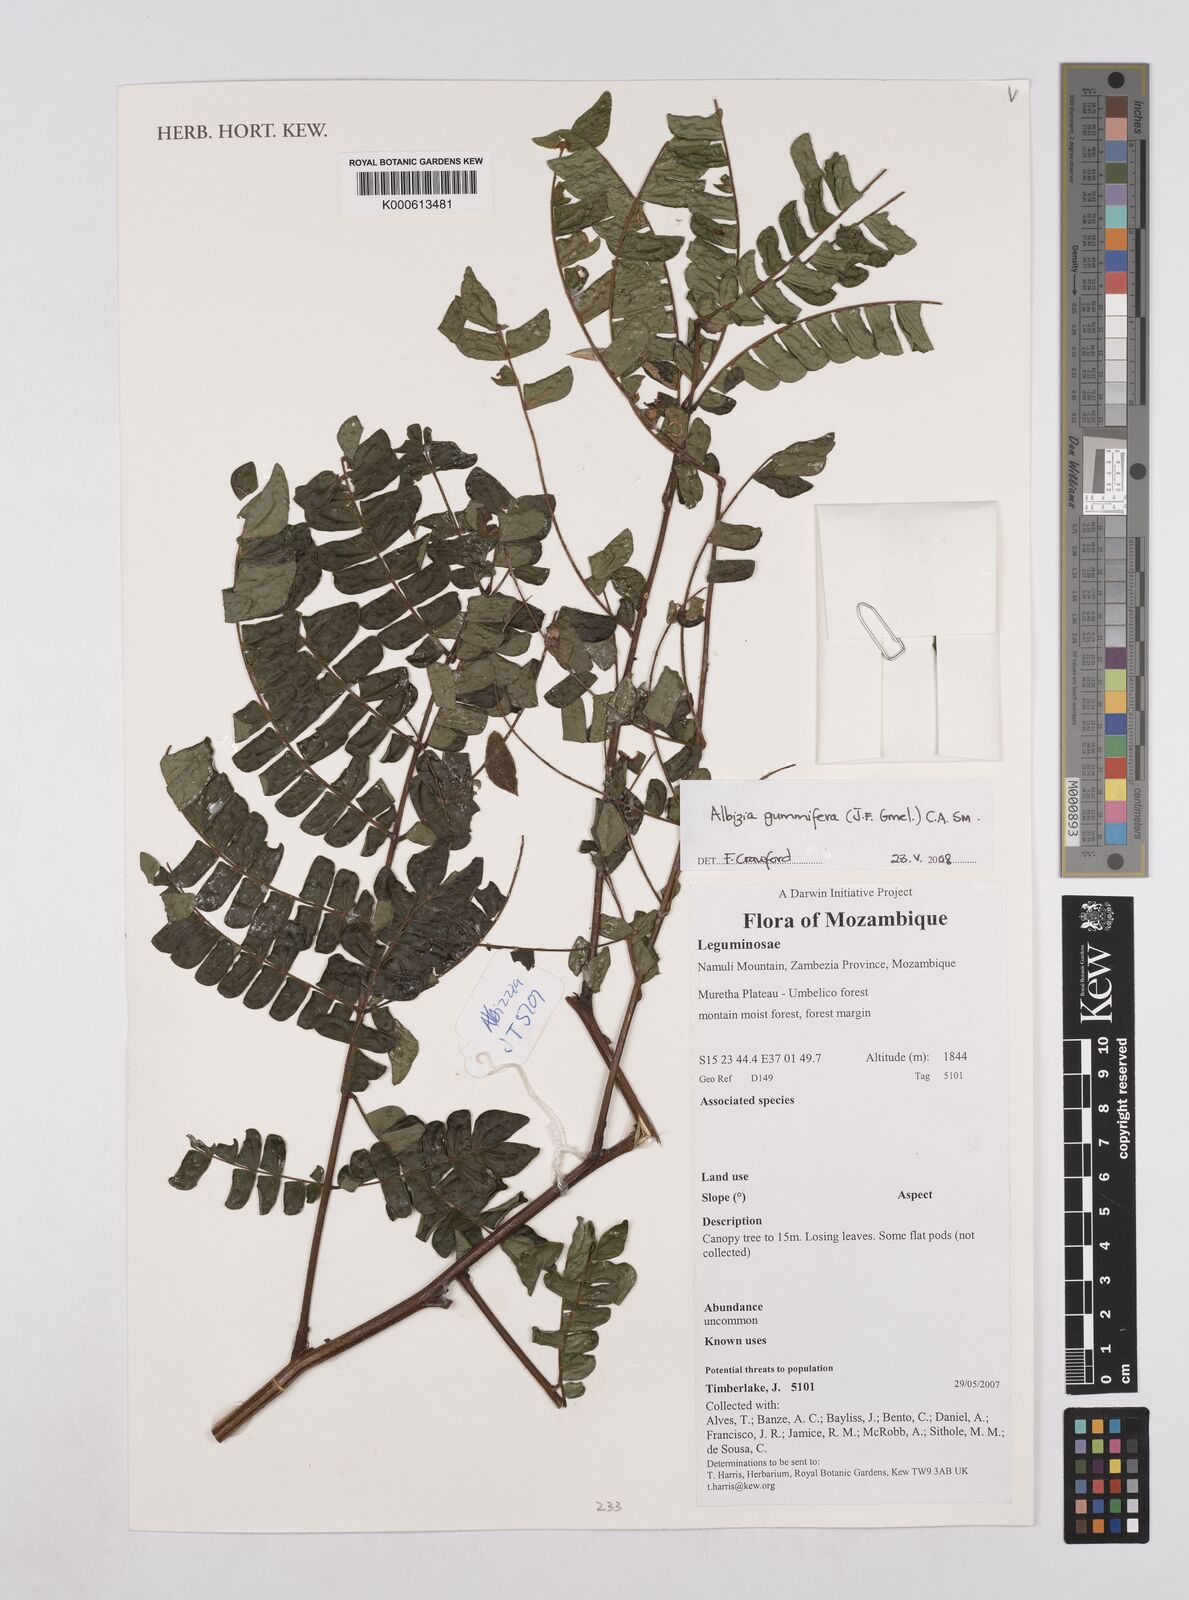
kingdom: Plantae
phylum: Tracheophyta
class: Magnoliopsida
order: Fabales
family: Fabaceae
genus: Albizia
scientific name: Albizia gummifera
